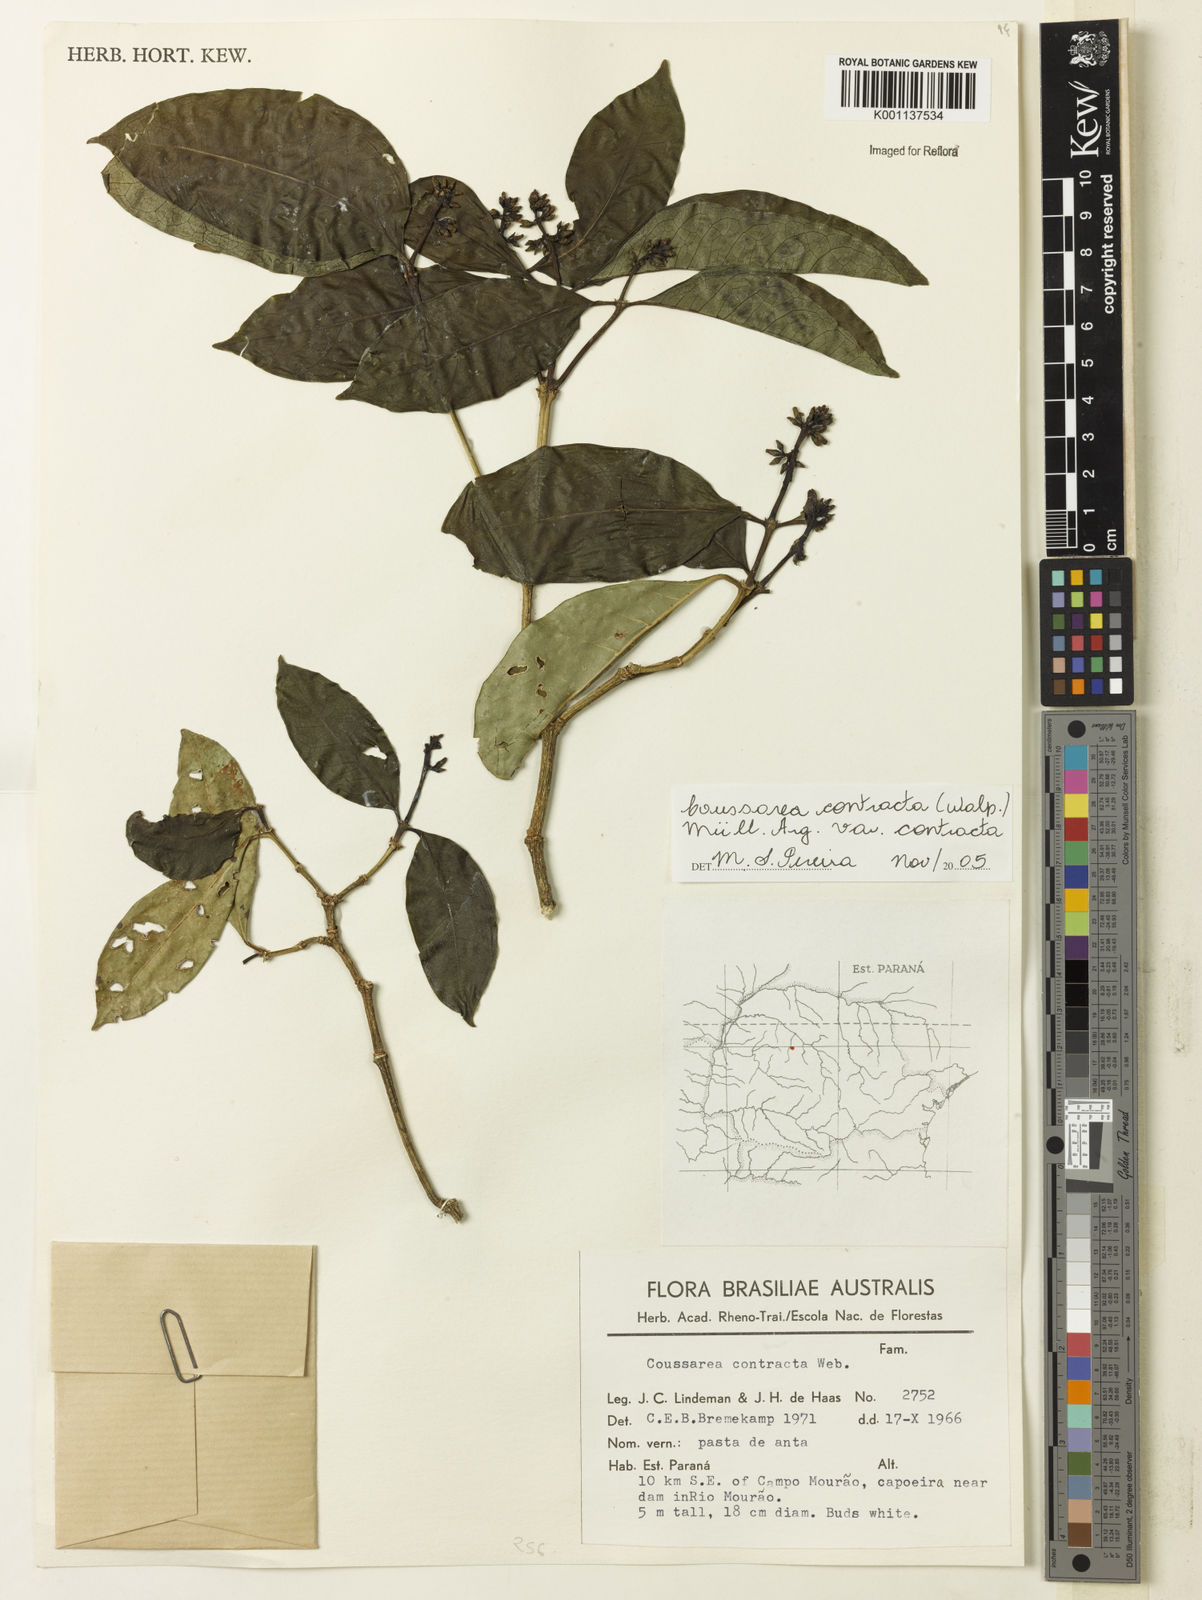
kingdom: Plantae
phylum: Tracheophyta
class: Magnoliopsida
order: Gentianales
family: Rubiaceae
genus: Coussarea
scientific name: Coussarea
